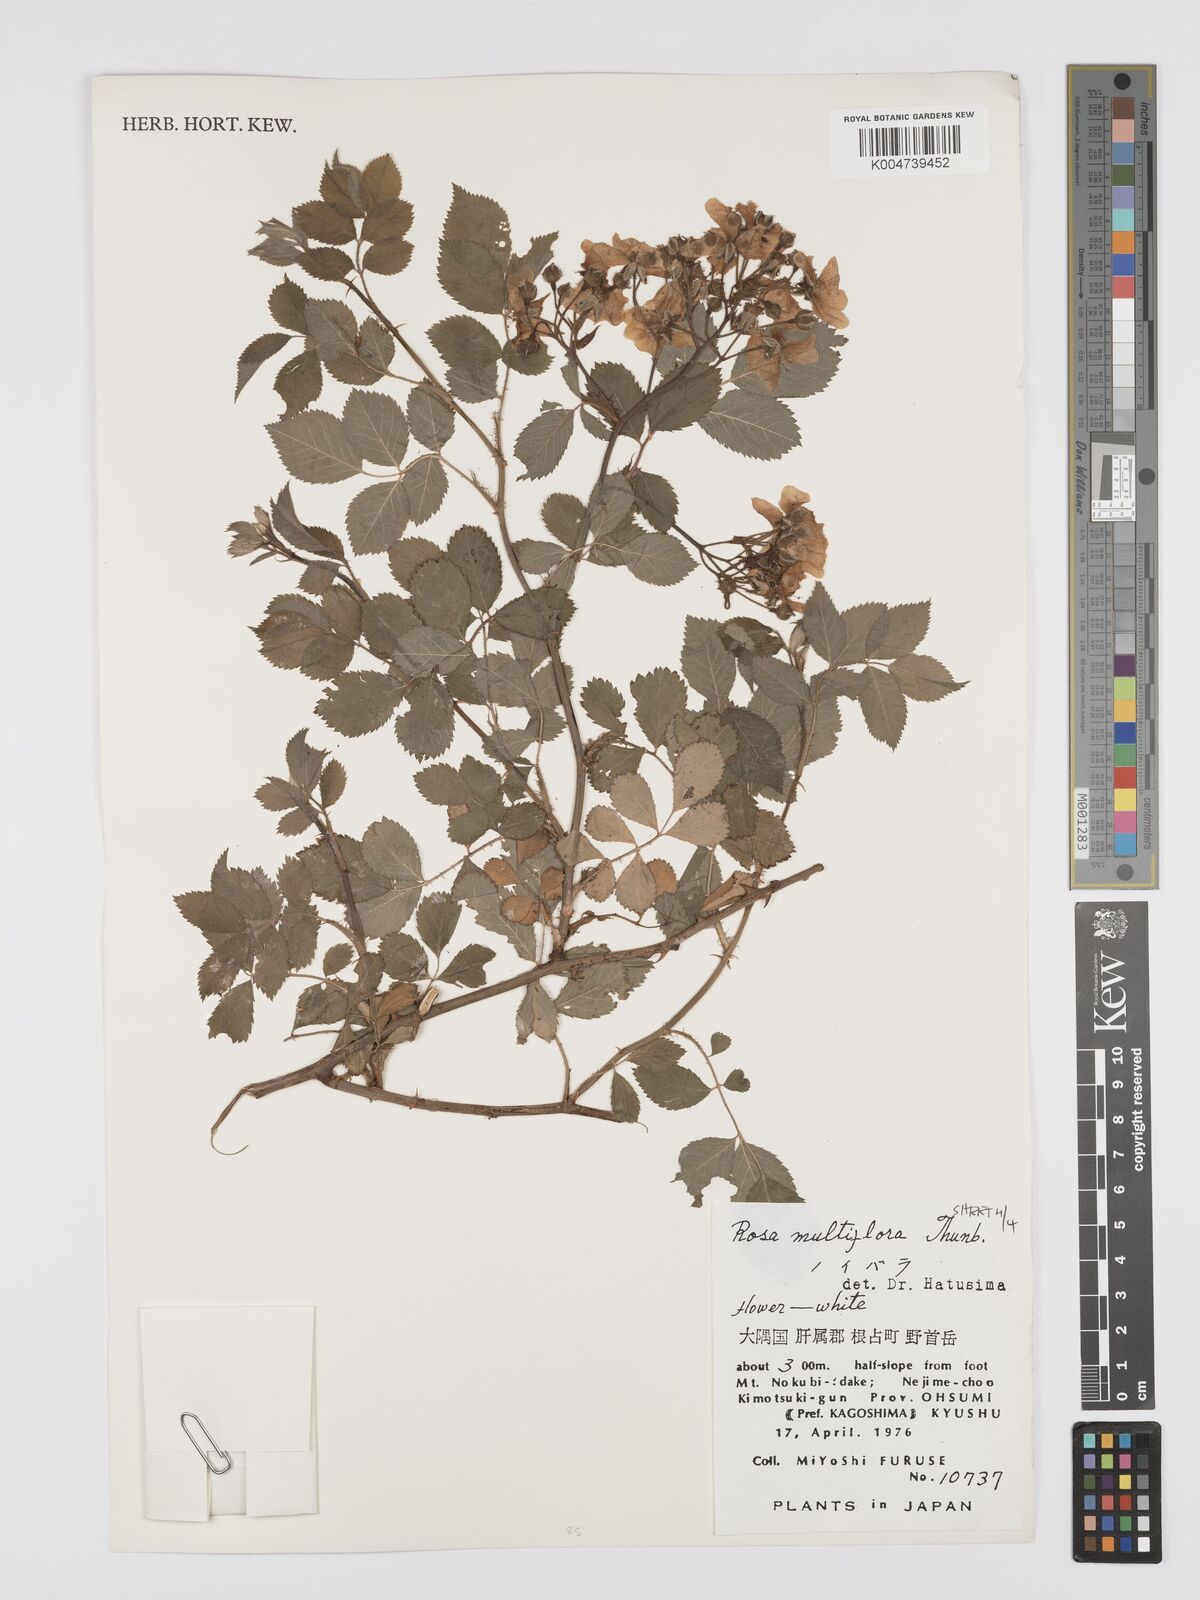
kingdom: Plantae
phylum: Tracheophyta
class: Magnoliopsida
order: Rosales
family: Rosaceae
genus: Rosa
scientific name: Rosa
